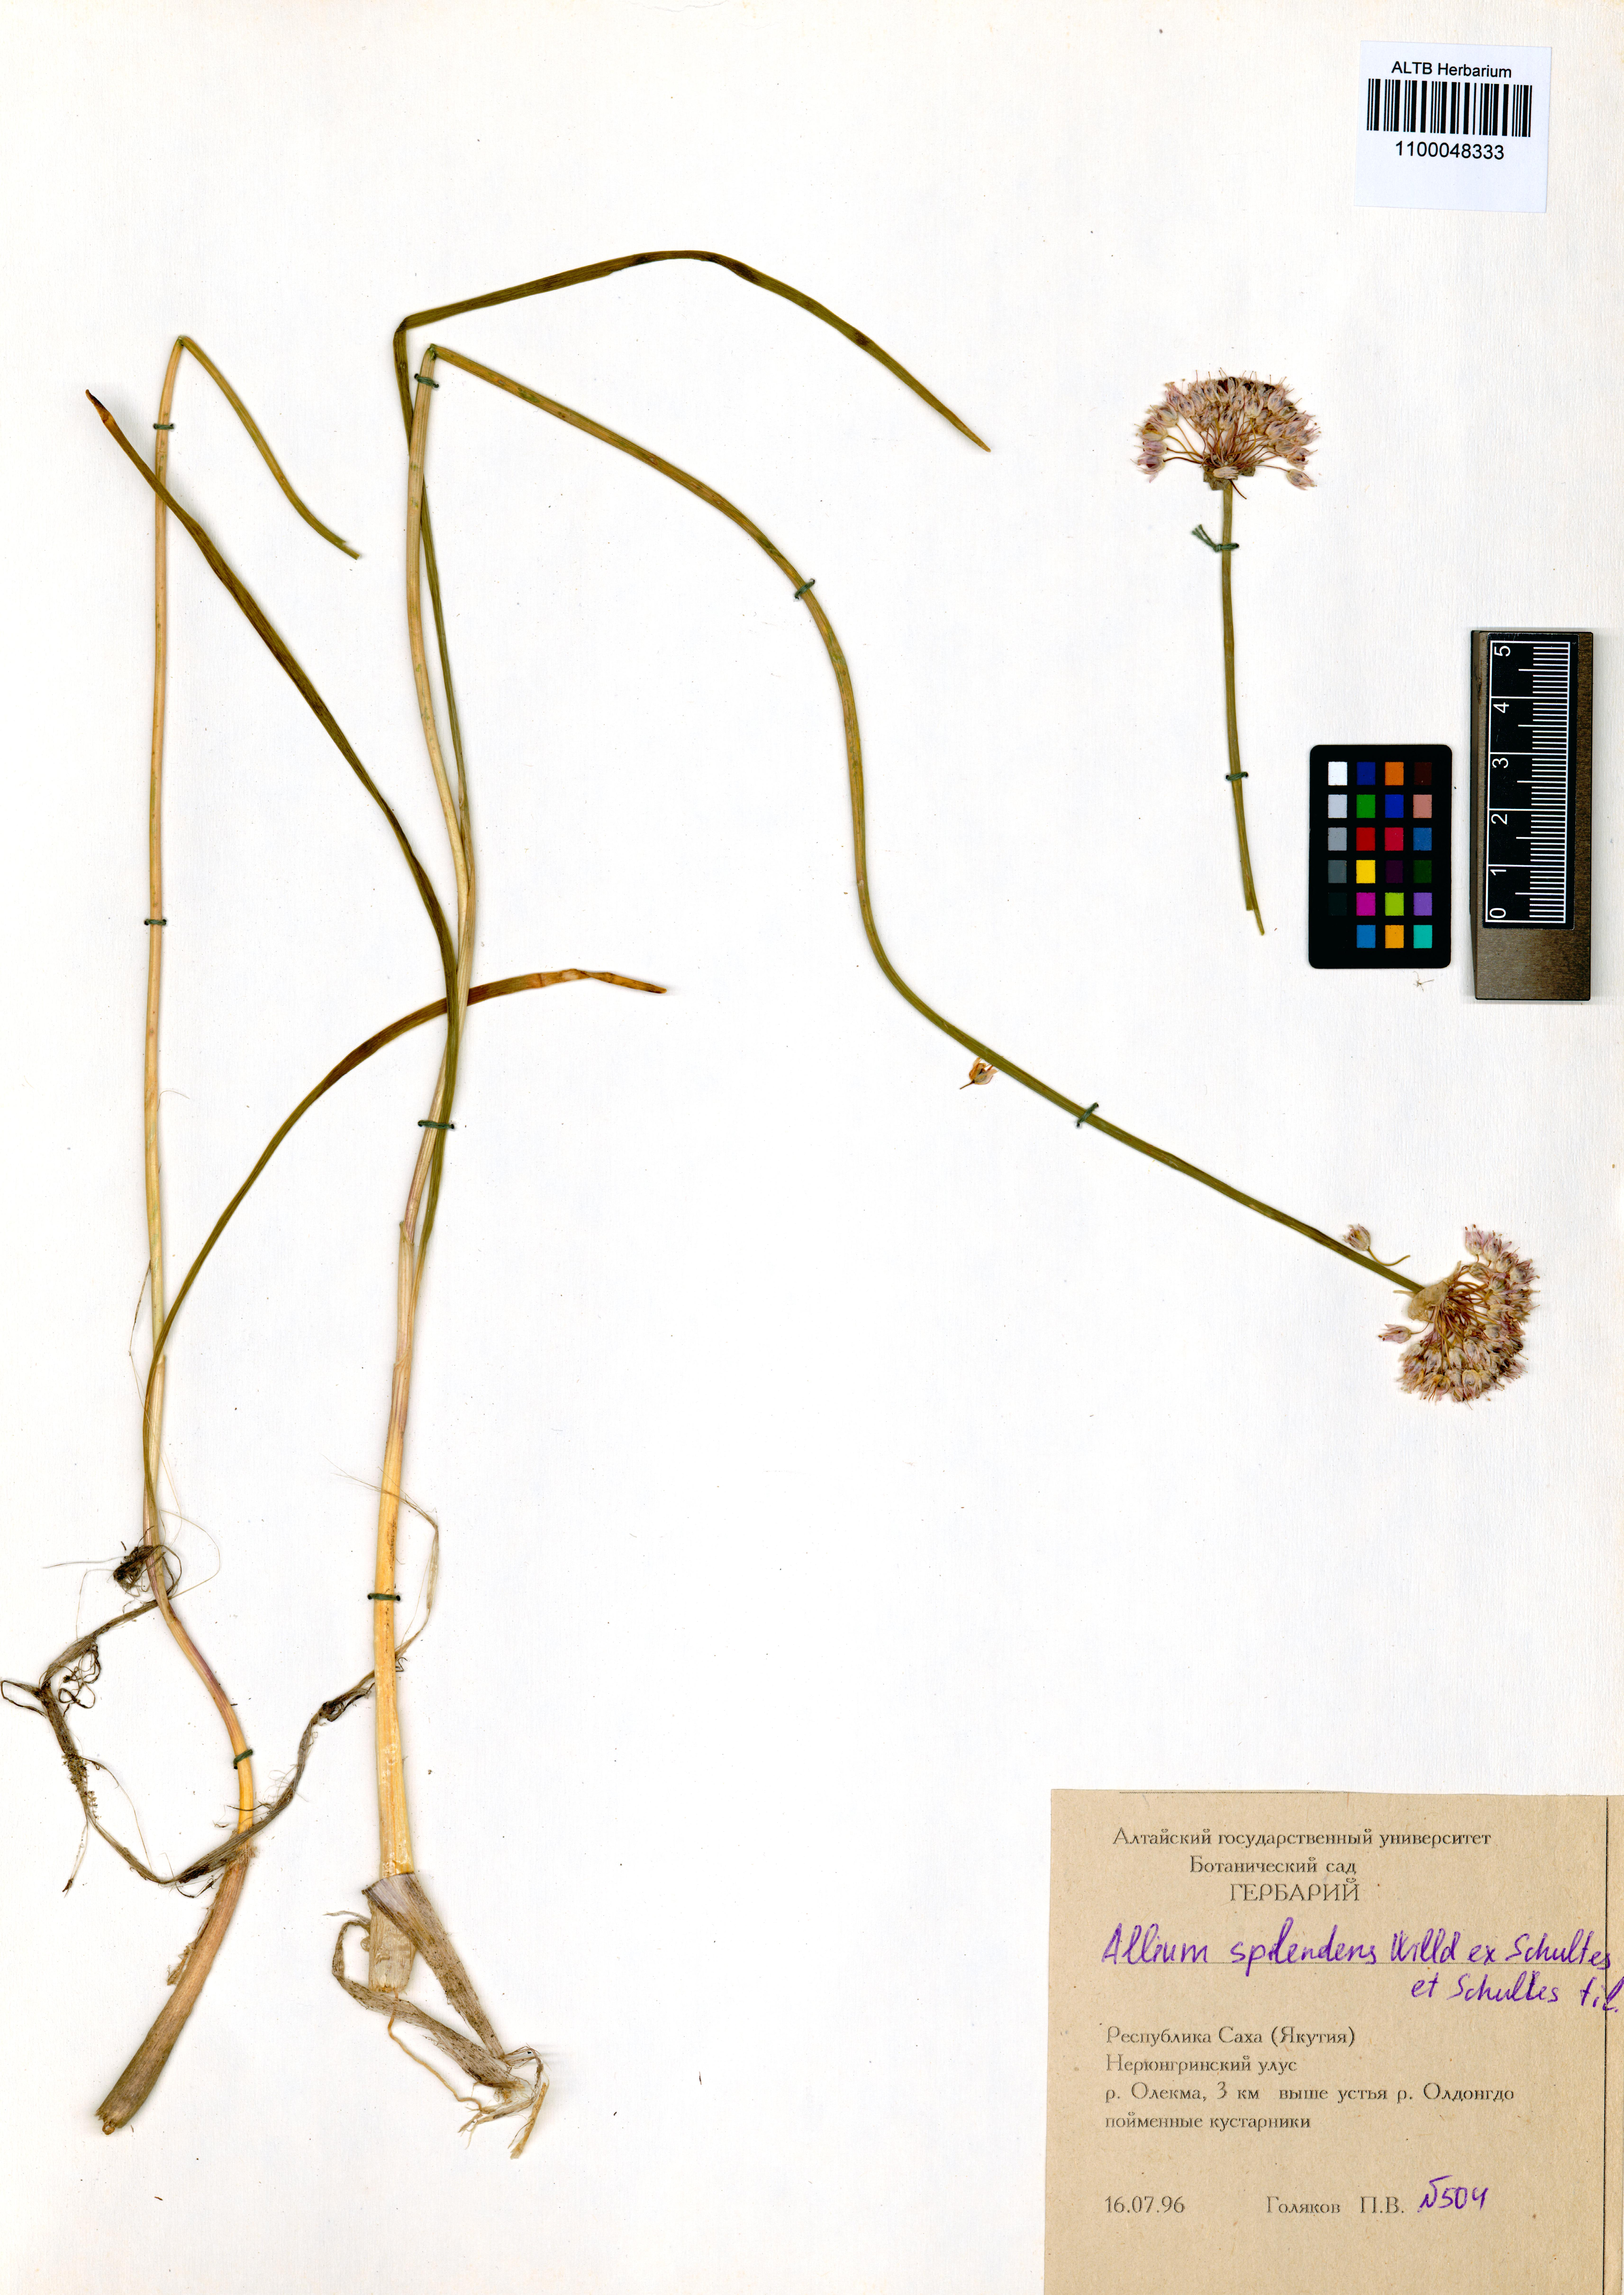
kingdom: Plantae
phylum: Tracheophyta
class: Liliopsida
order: Asparagales
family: Amaryllidaceae
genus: Allium
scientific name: Allium splendens
